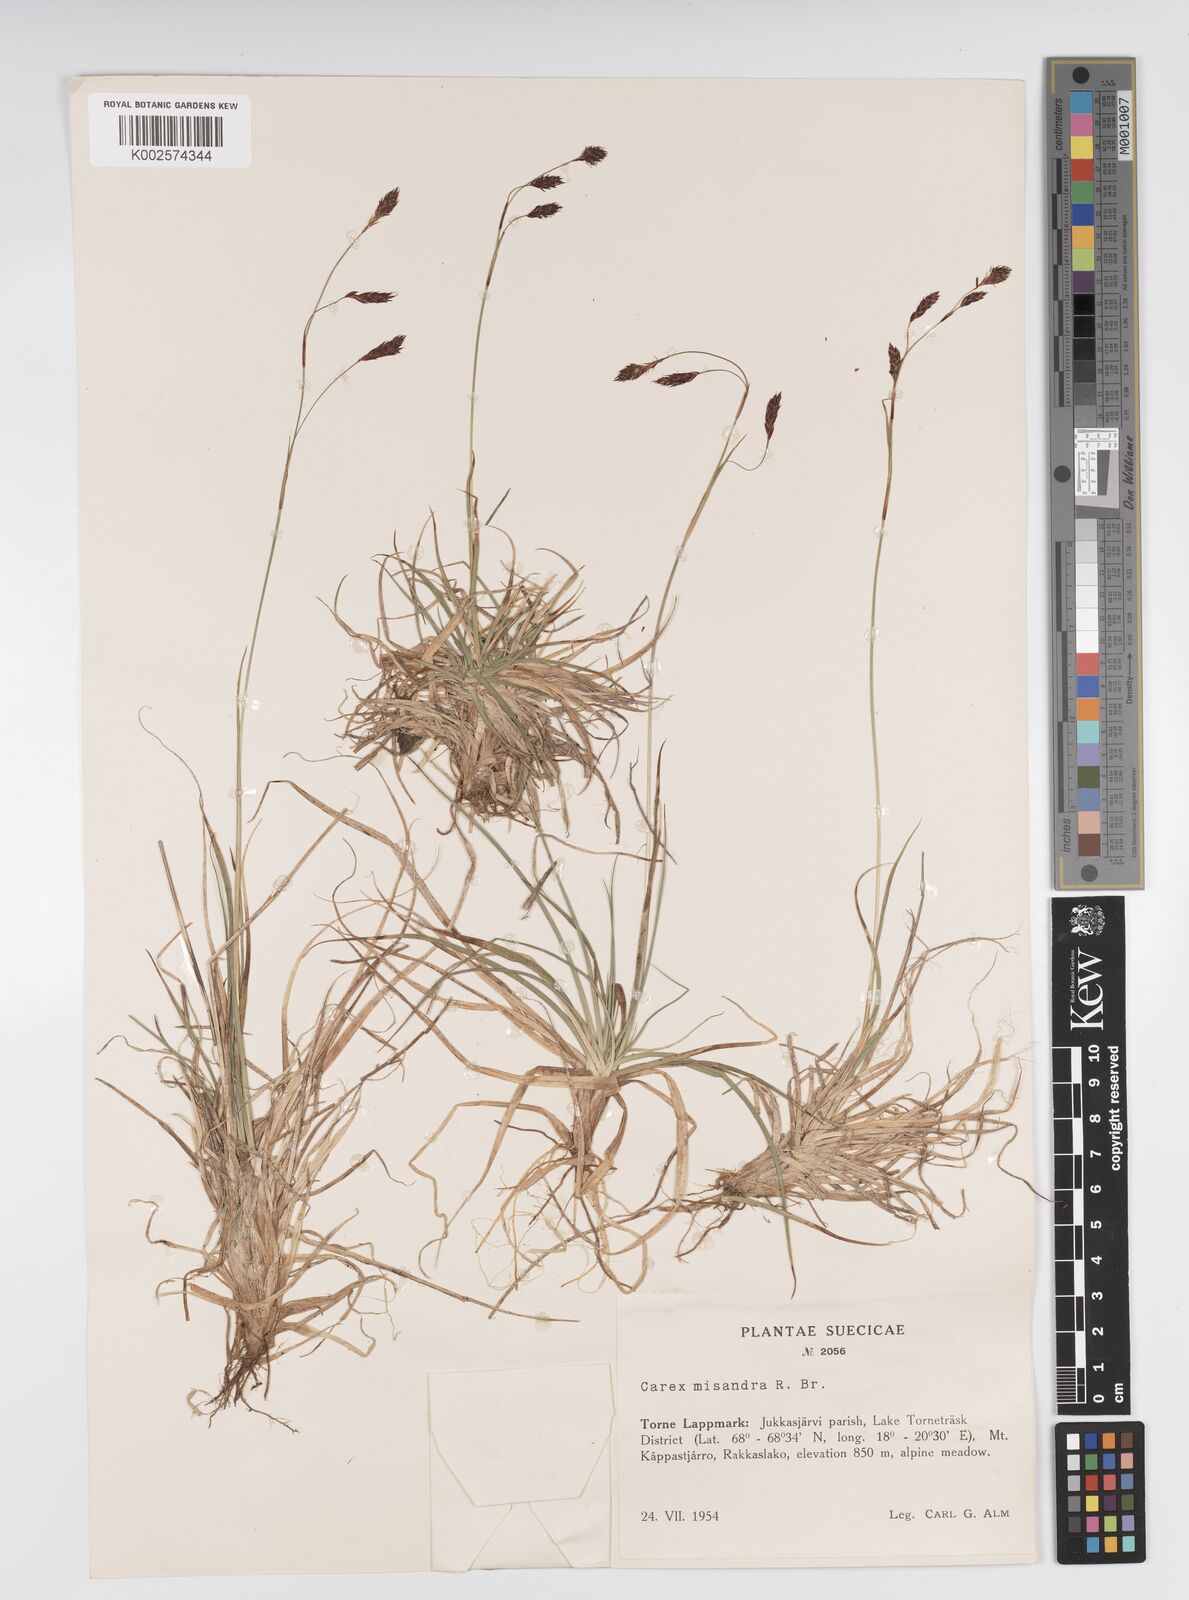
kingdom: Plantae
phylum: Tracheophyta
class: Liliopsida
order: Poales
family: Cyperaceae
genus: Carex
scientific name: Carex fuliginosa
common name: Few-flowered sedge
